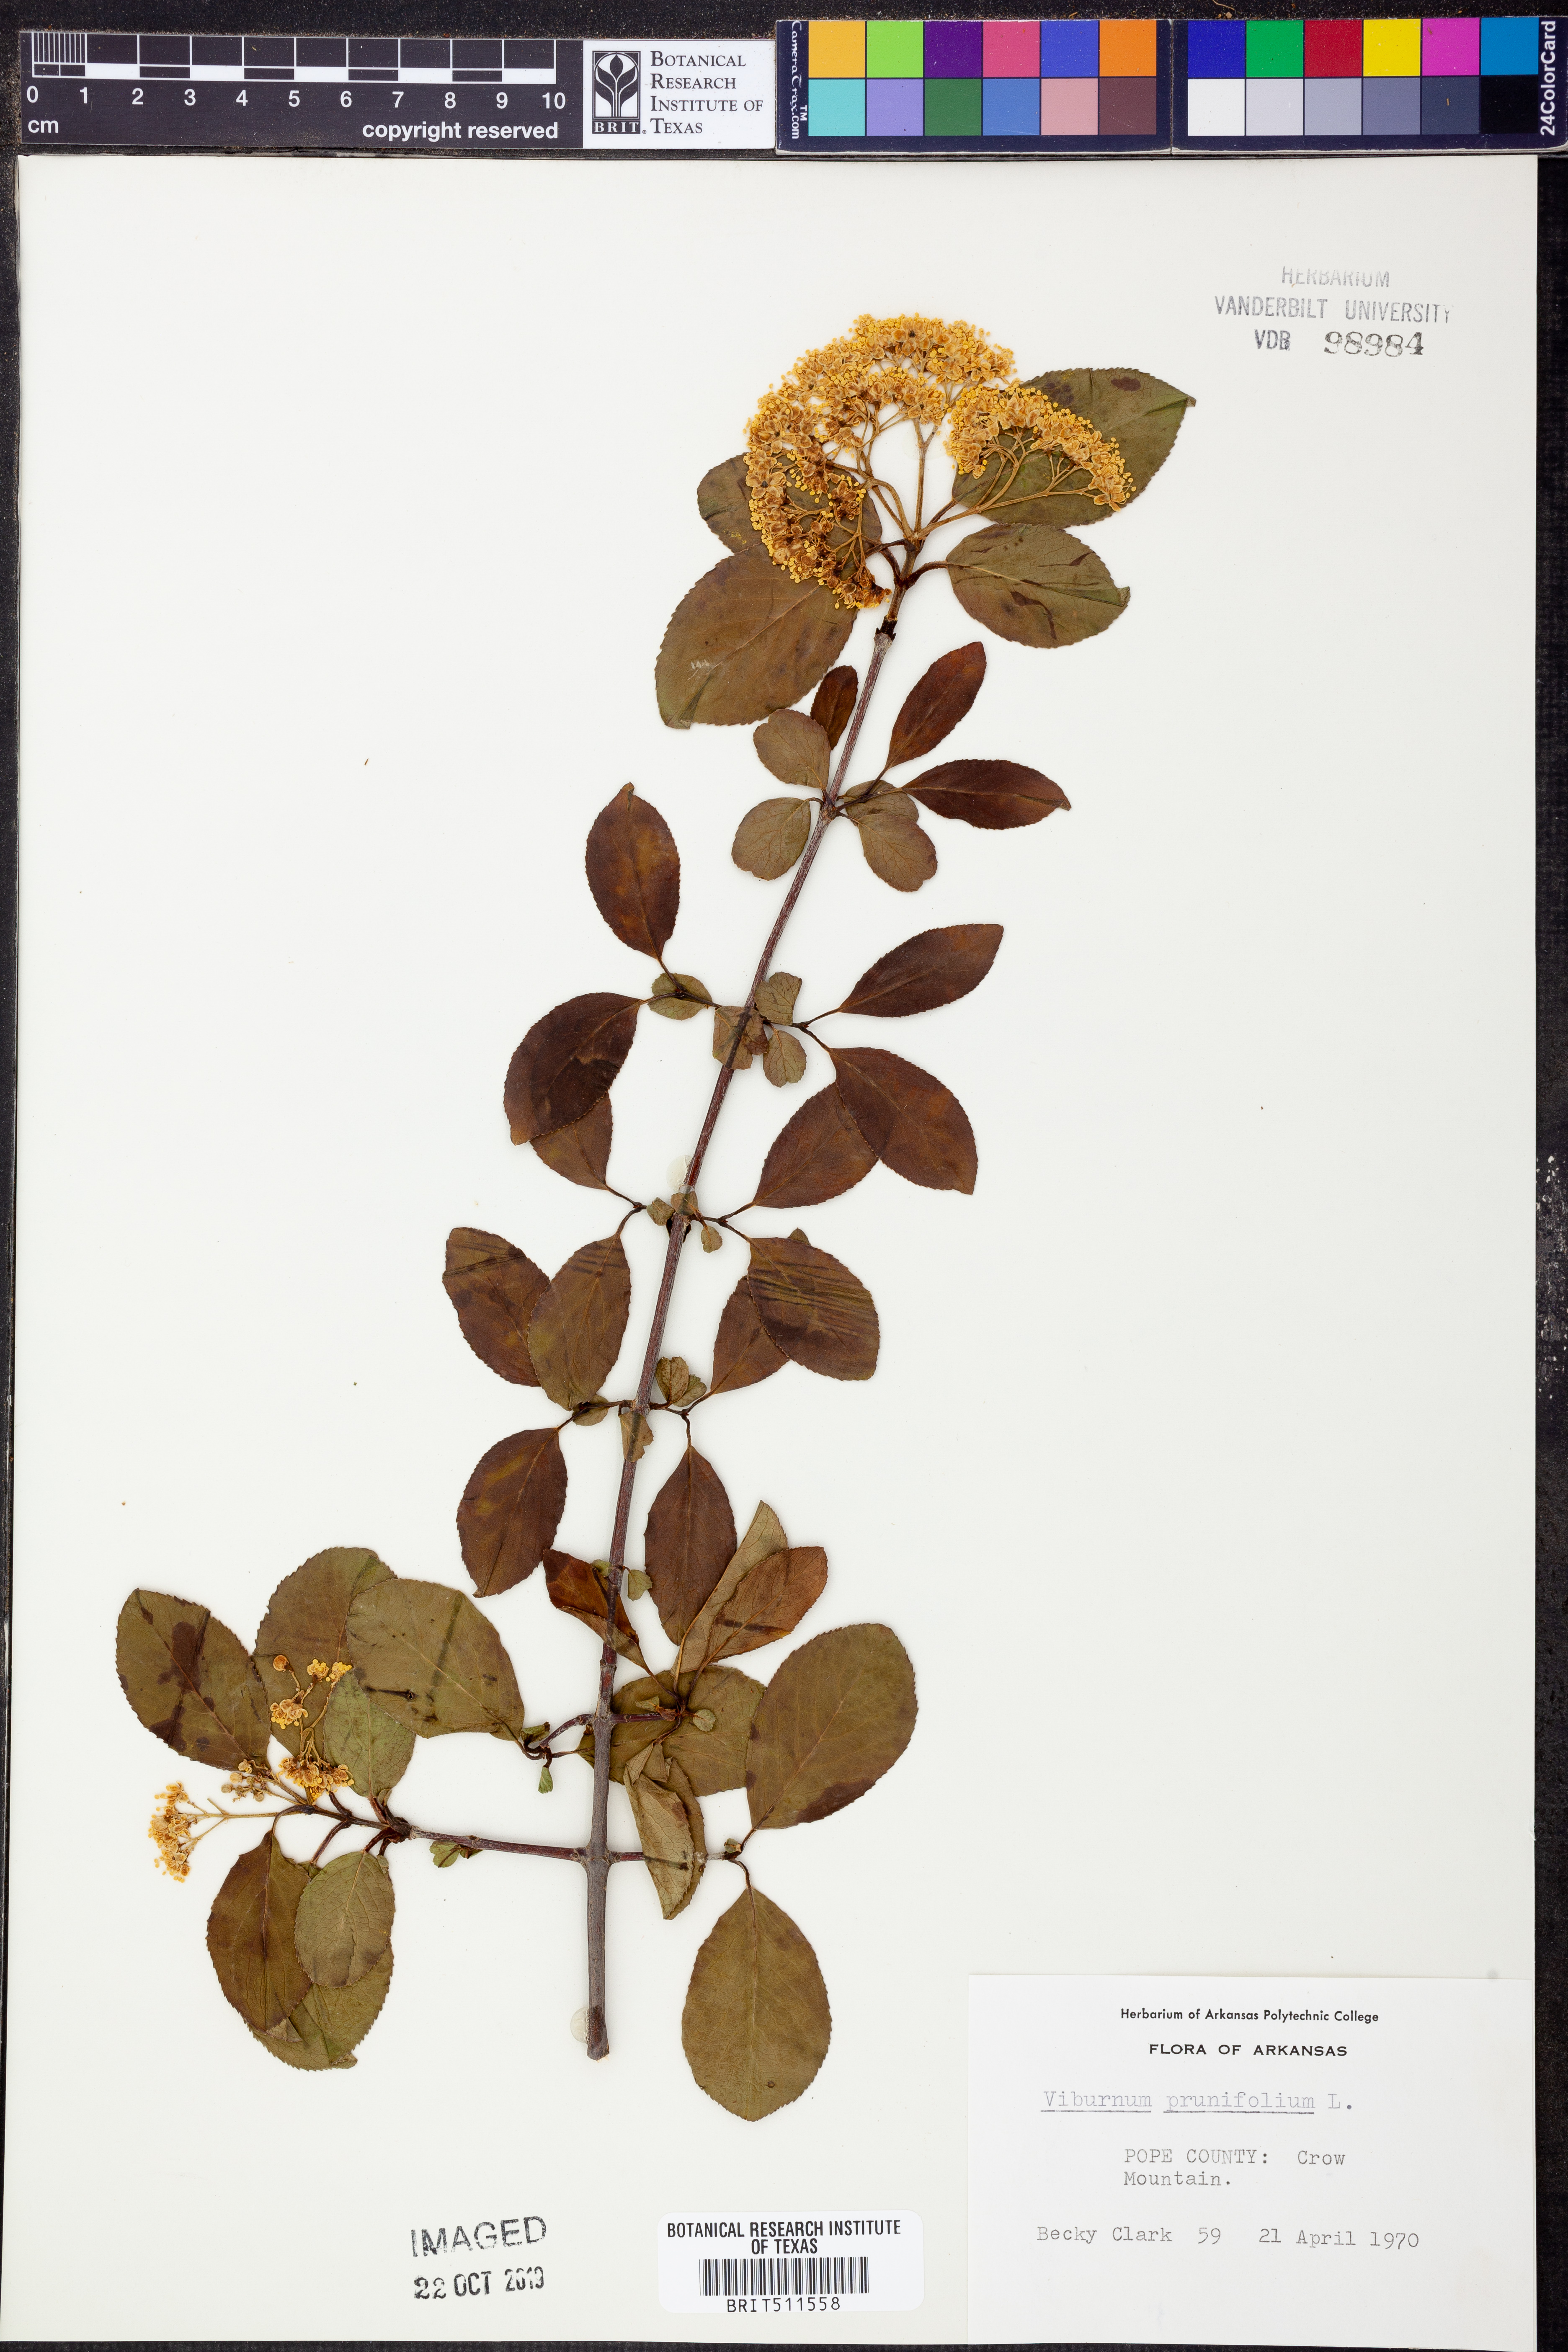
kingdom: Plantae
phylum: Tracheophyta
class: Magnoliopsida
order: Dipsacales
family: Viburnaceae
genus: Viburnum
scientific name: Viburnum prunifolium
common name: Black haw
